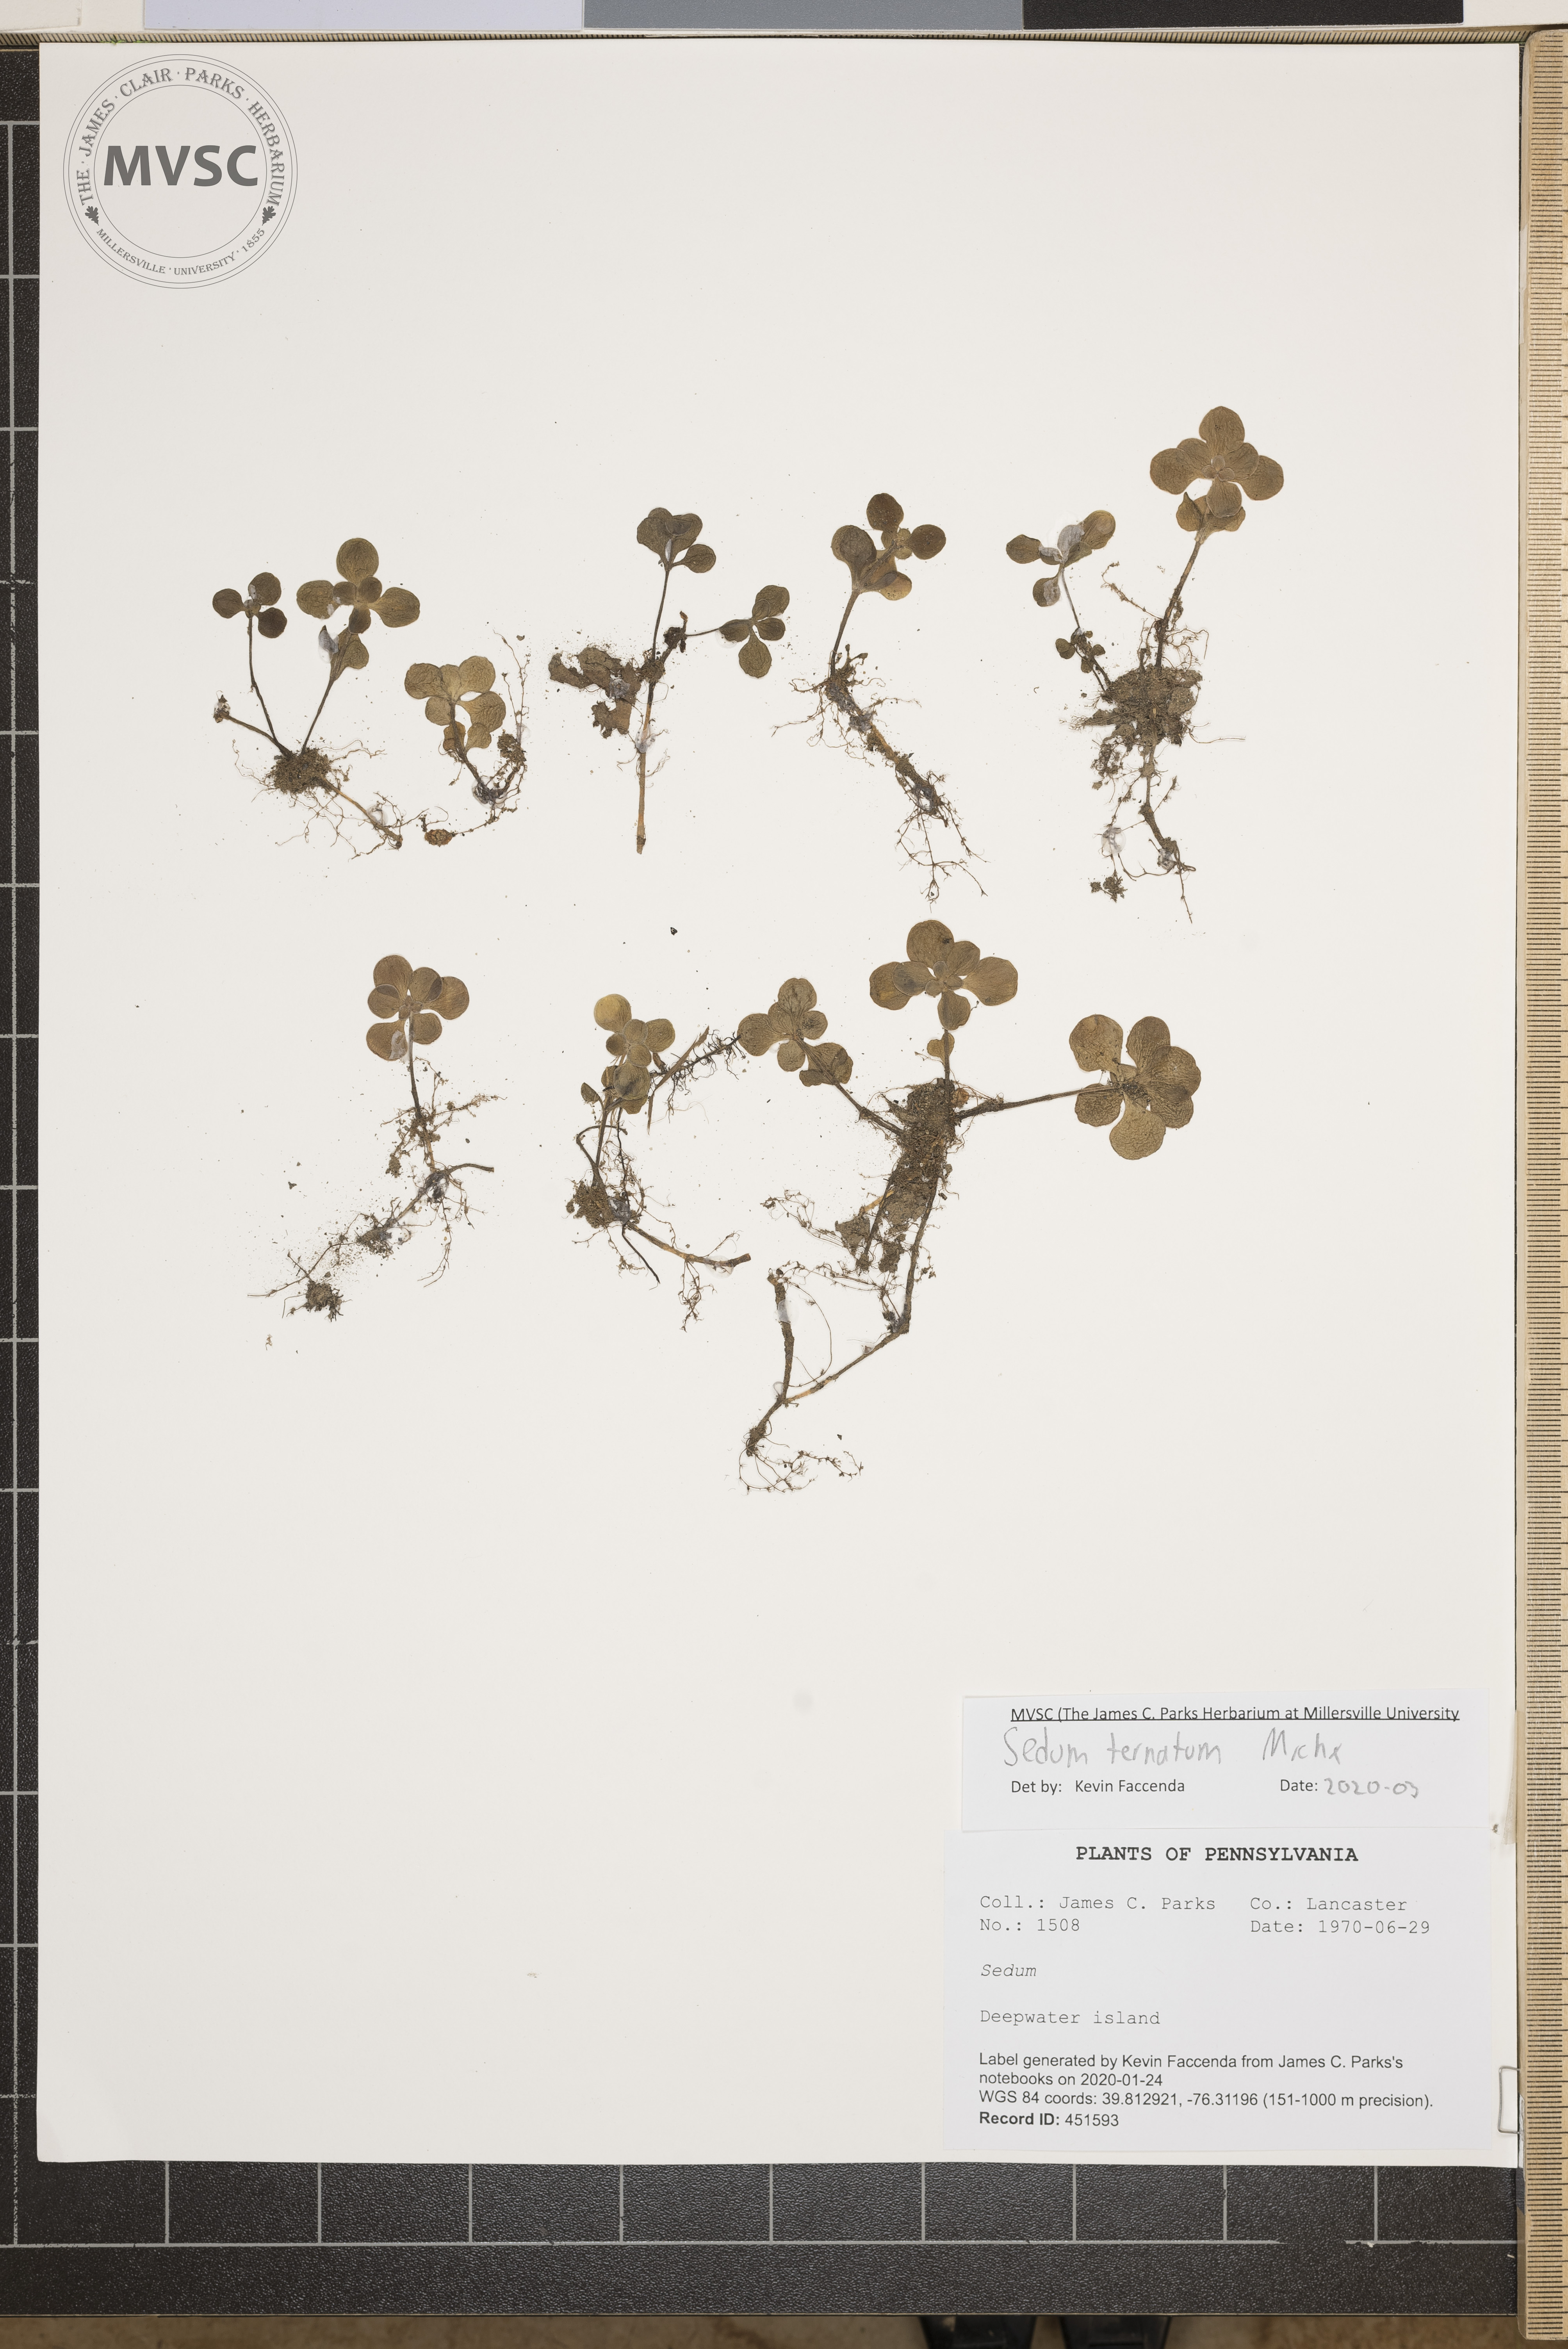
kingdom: Plantae
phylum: Tracheophyta
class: Magnoliopsida
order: Saxifragales
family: Crassulaceae
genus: Sedum
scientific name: Sedum ternatum
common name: Wild stonecrop
